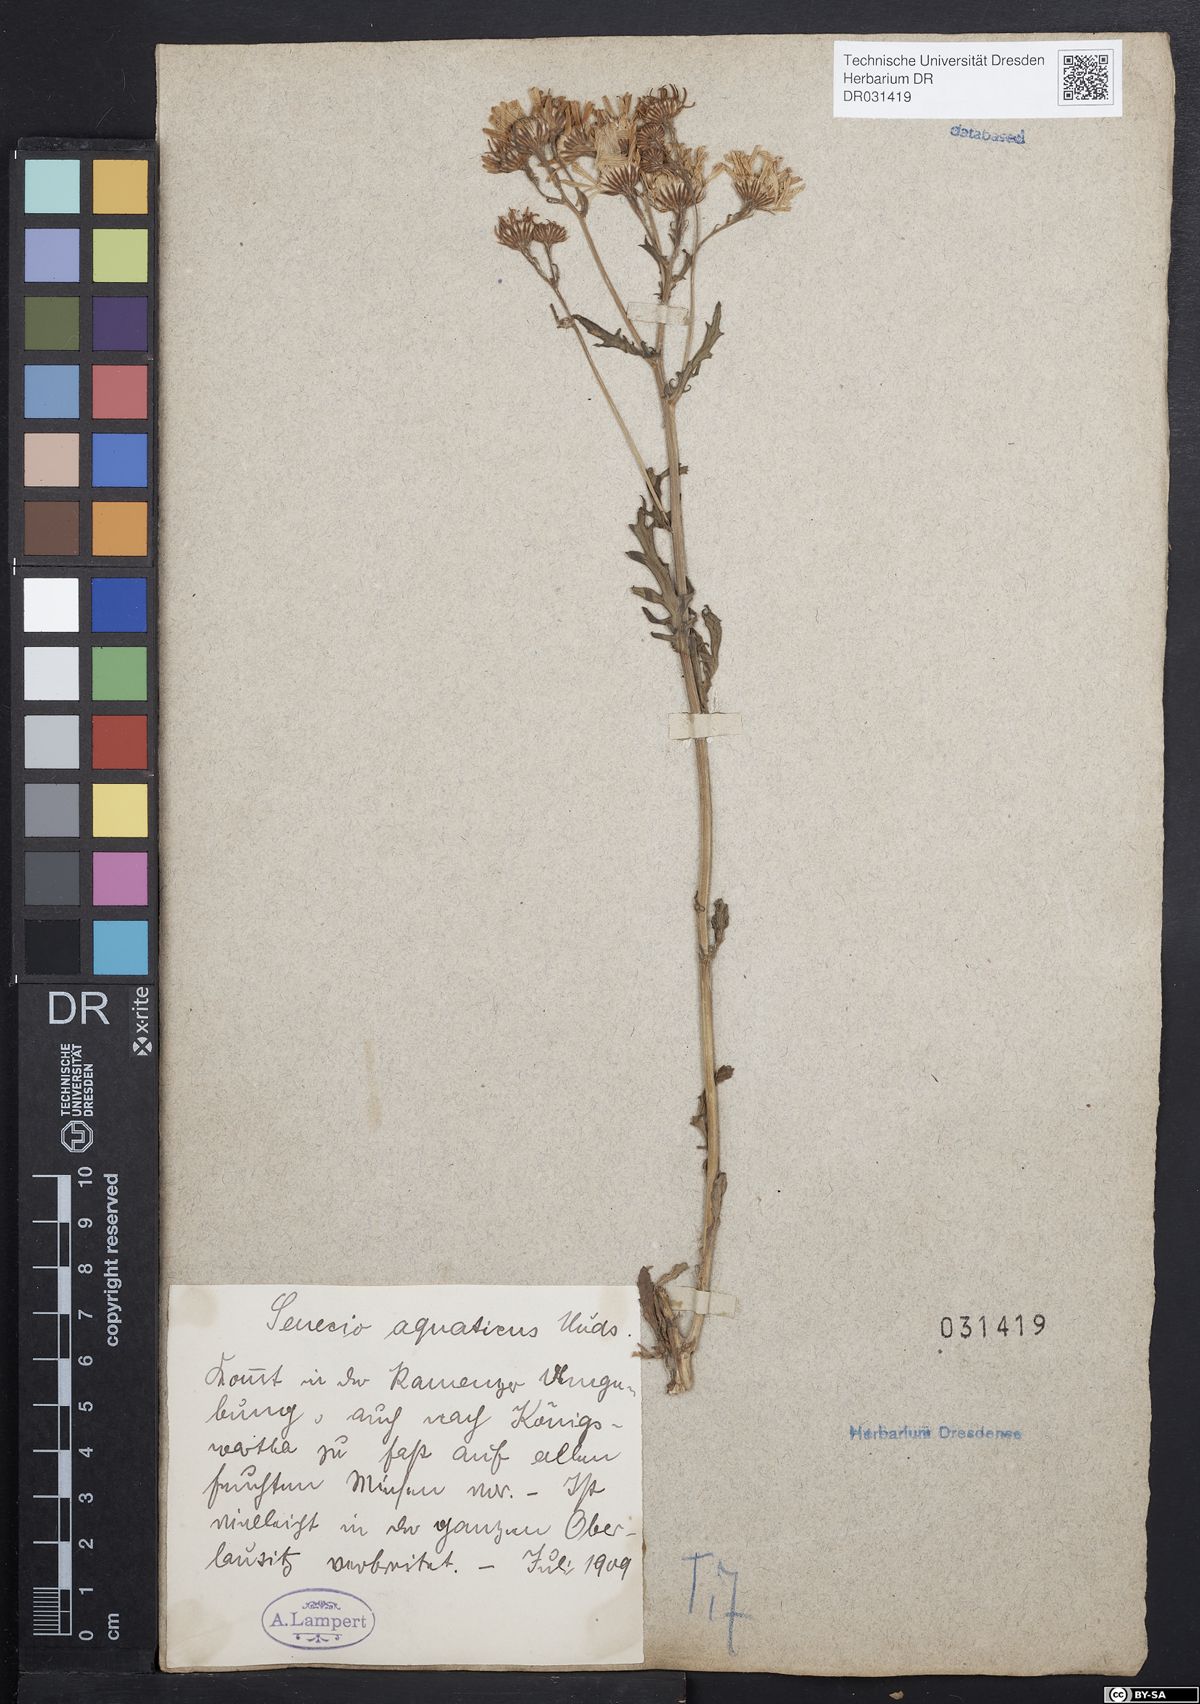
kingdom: Plantae
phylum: Tracheophyta
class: Magnoliopsida
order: Asterales
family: Asteraceae
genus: Jacobaea
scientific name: Jacobaea aquatica
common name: Water ragwort
